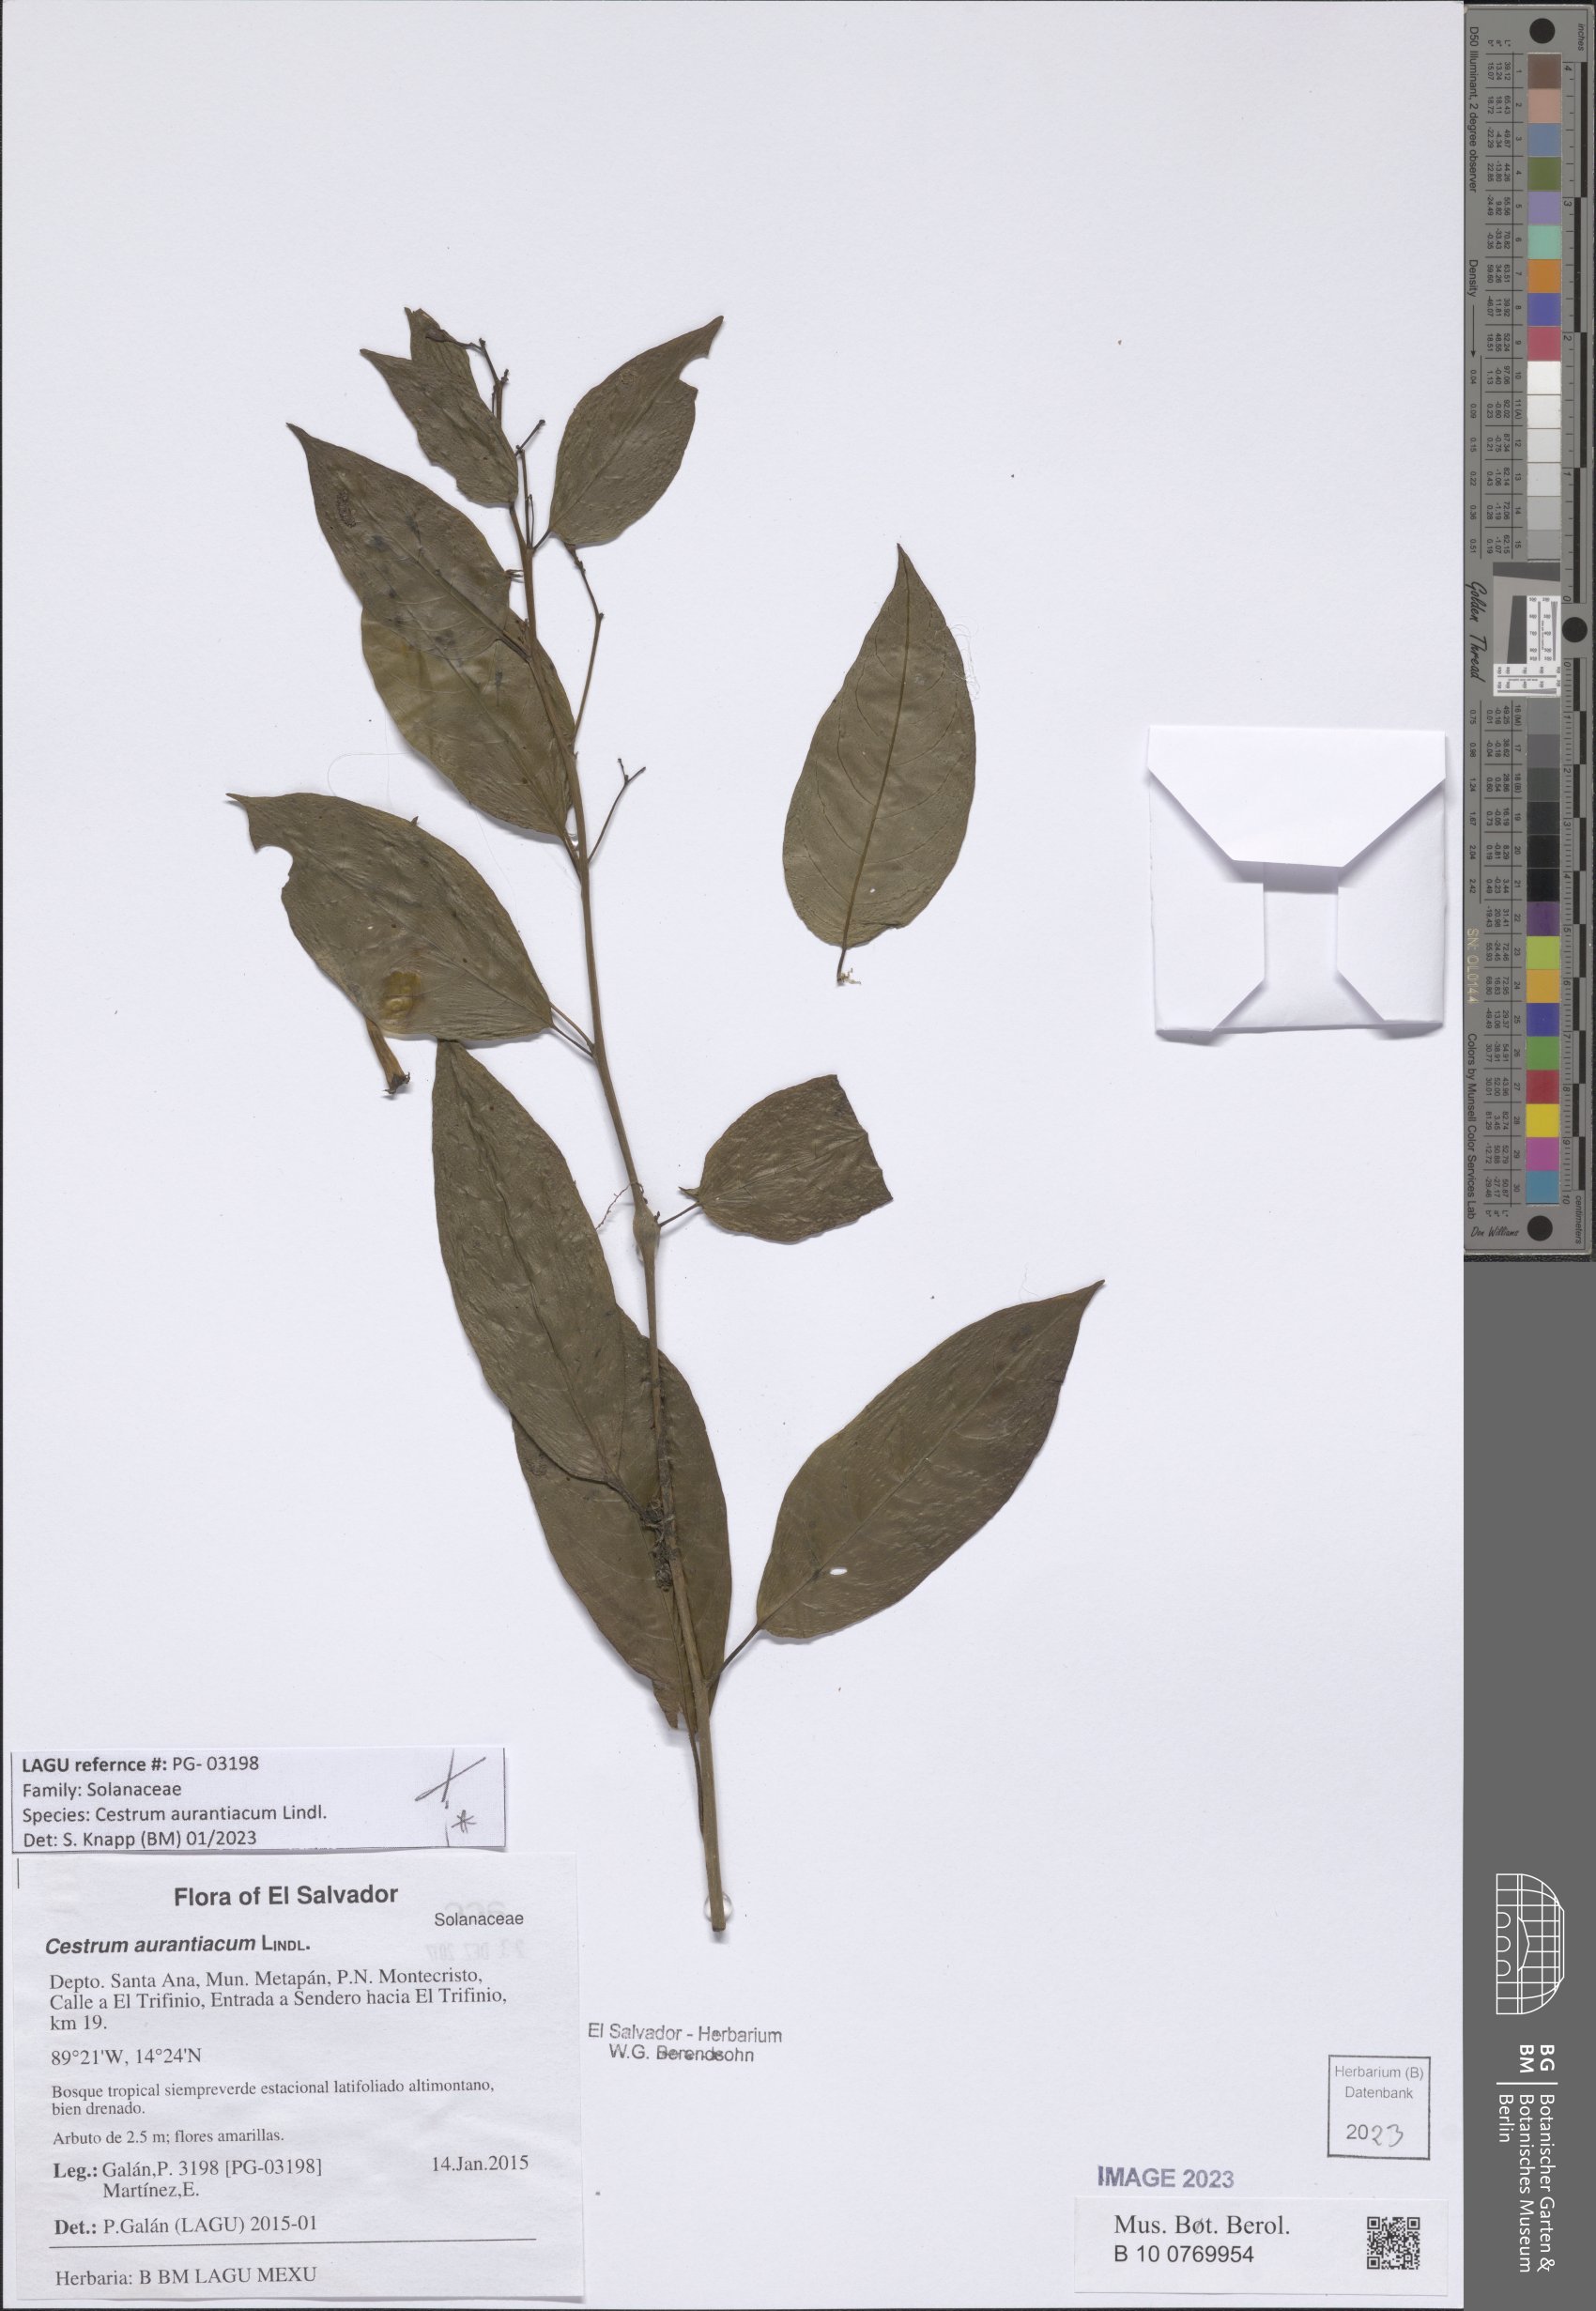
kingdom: Plantae
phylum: Tracheophyta
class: Magnoliopsida
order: Solanales
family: Solanaceae
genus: Cestrum
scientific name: Cestrum aurantiacum
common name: Orange cestrum
